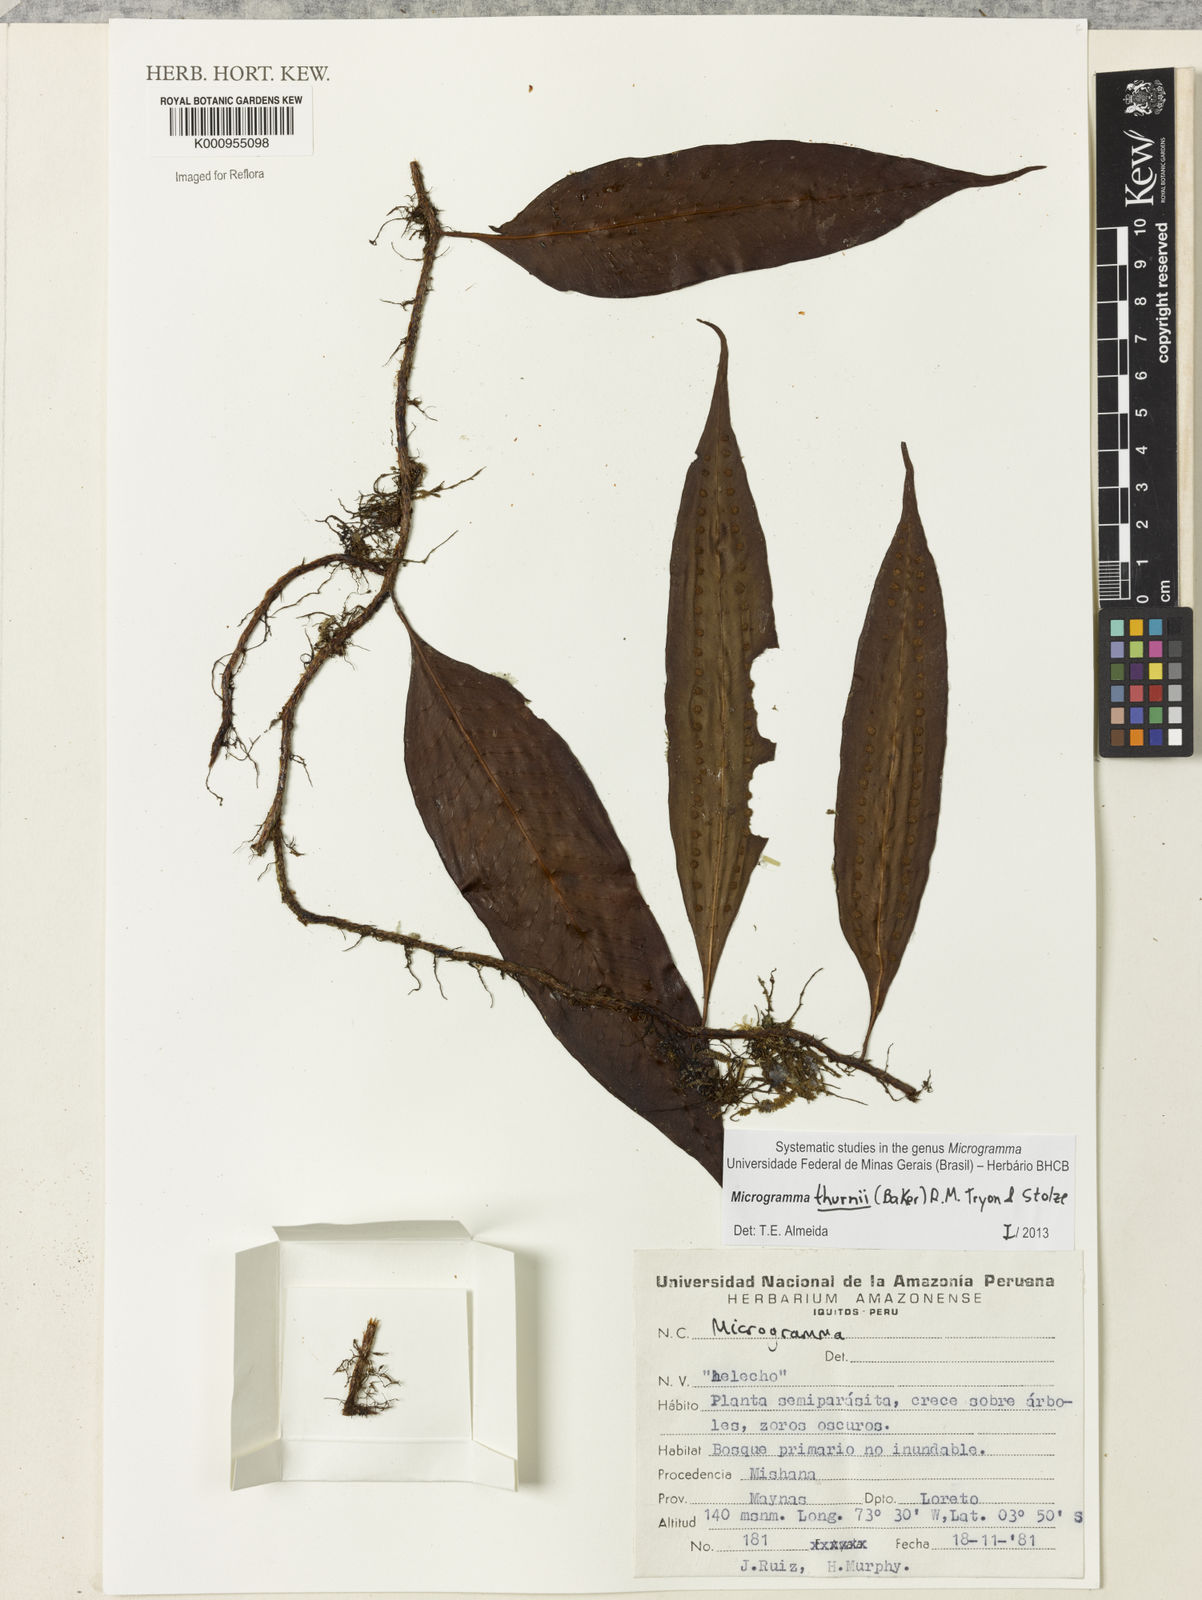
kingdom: Plantae
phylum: Tracheophyta
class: Polypodiopsida
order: Polypodiales
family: Polypodiaceae
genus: Microgramma
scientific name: Microgramma thurnii
